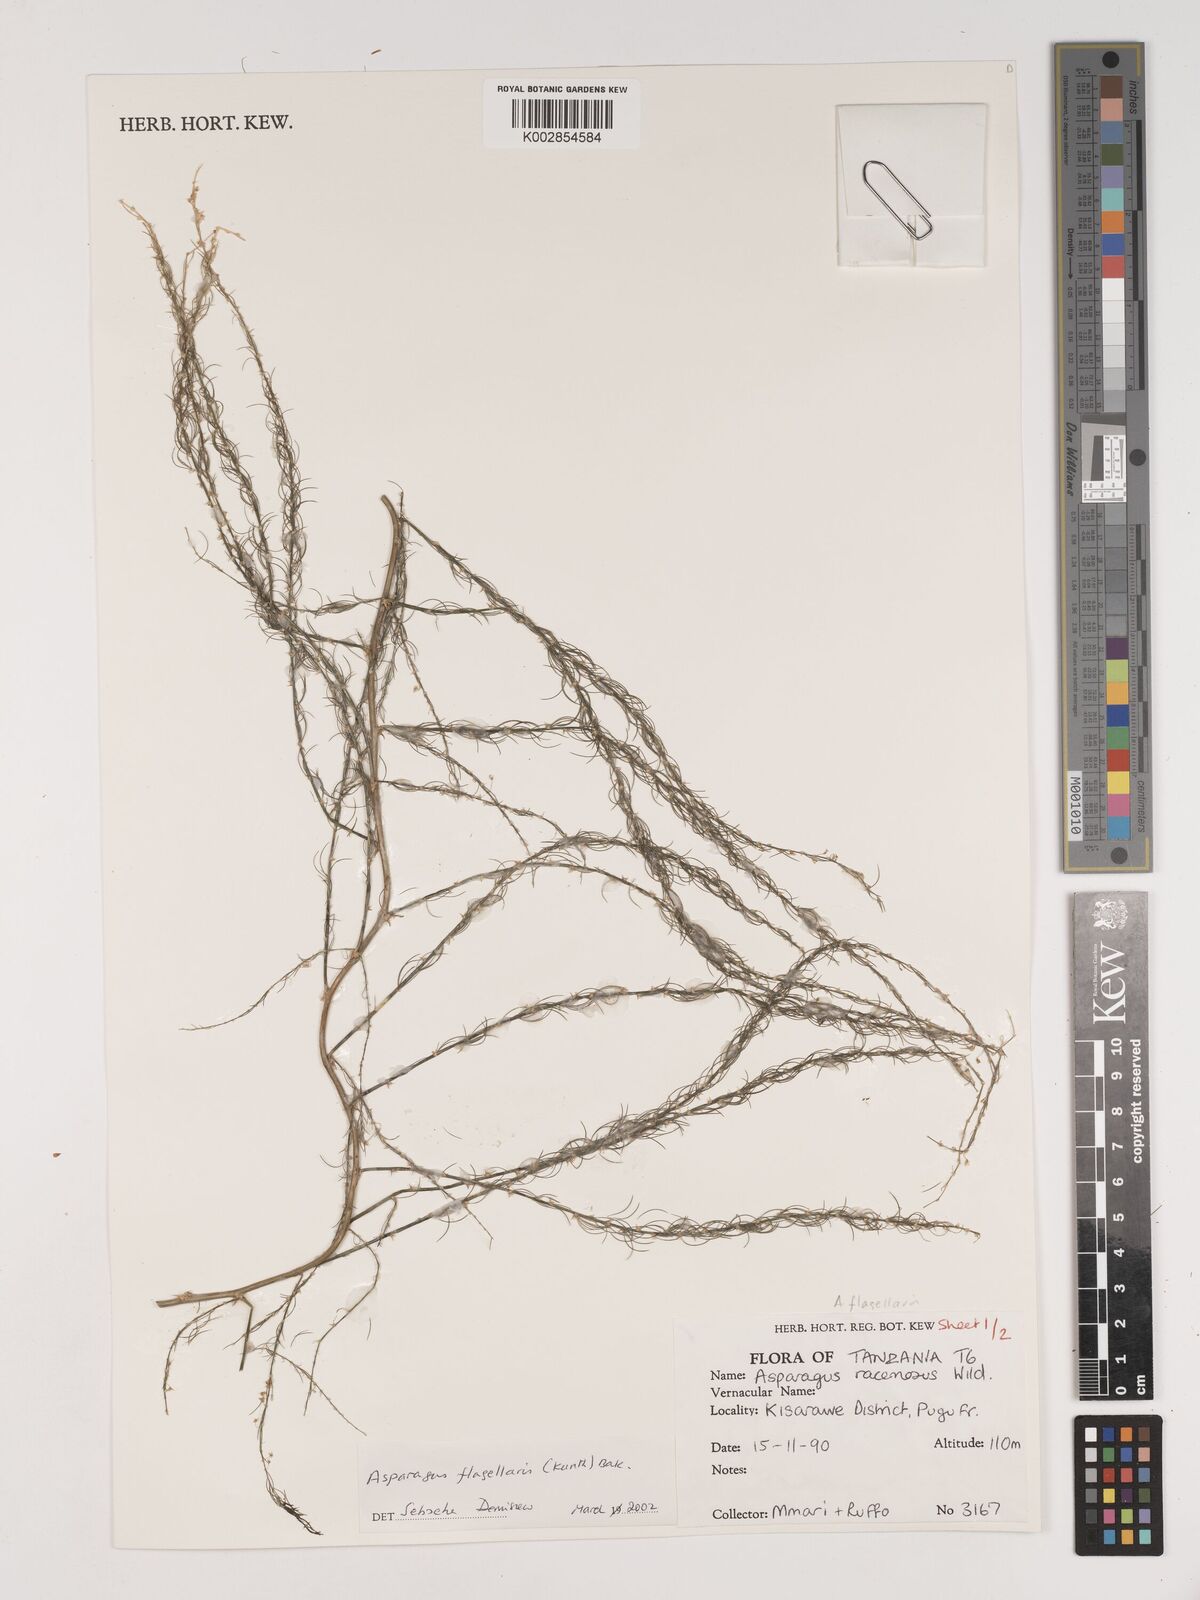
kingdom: Plantae
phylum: Tracheophyta
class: Liliopsida
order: Asparagales
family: Asparagaceae
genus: Asparagus
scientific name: Asparagus flagellaris
